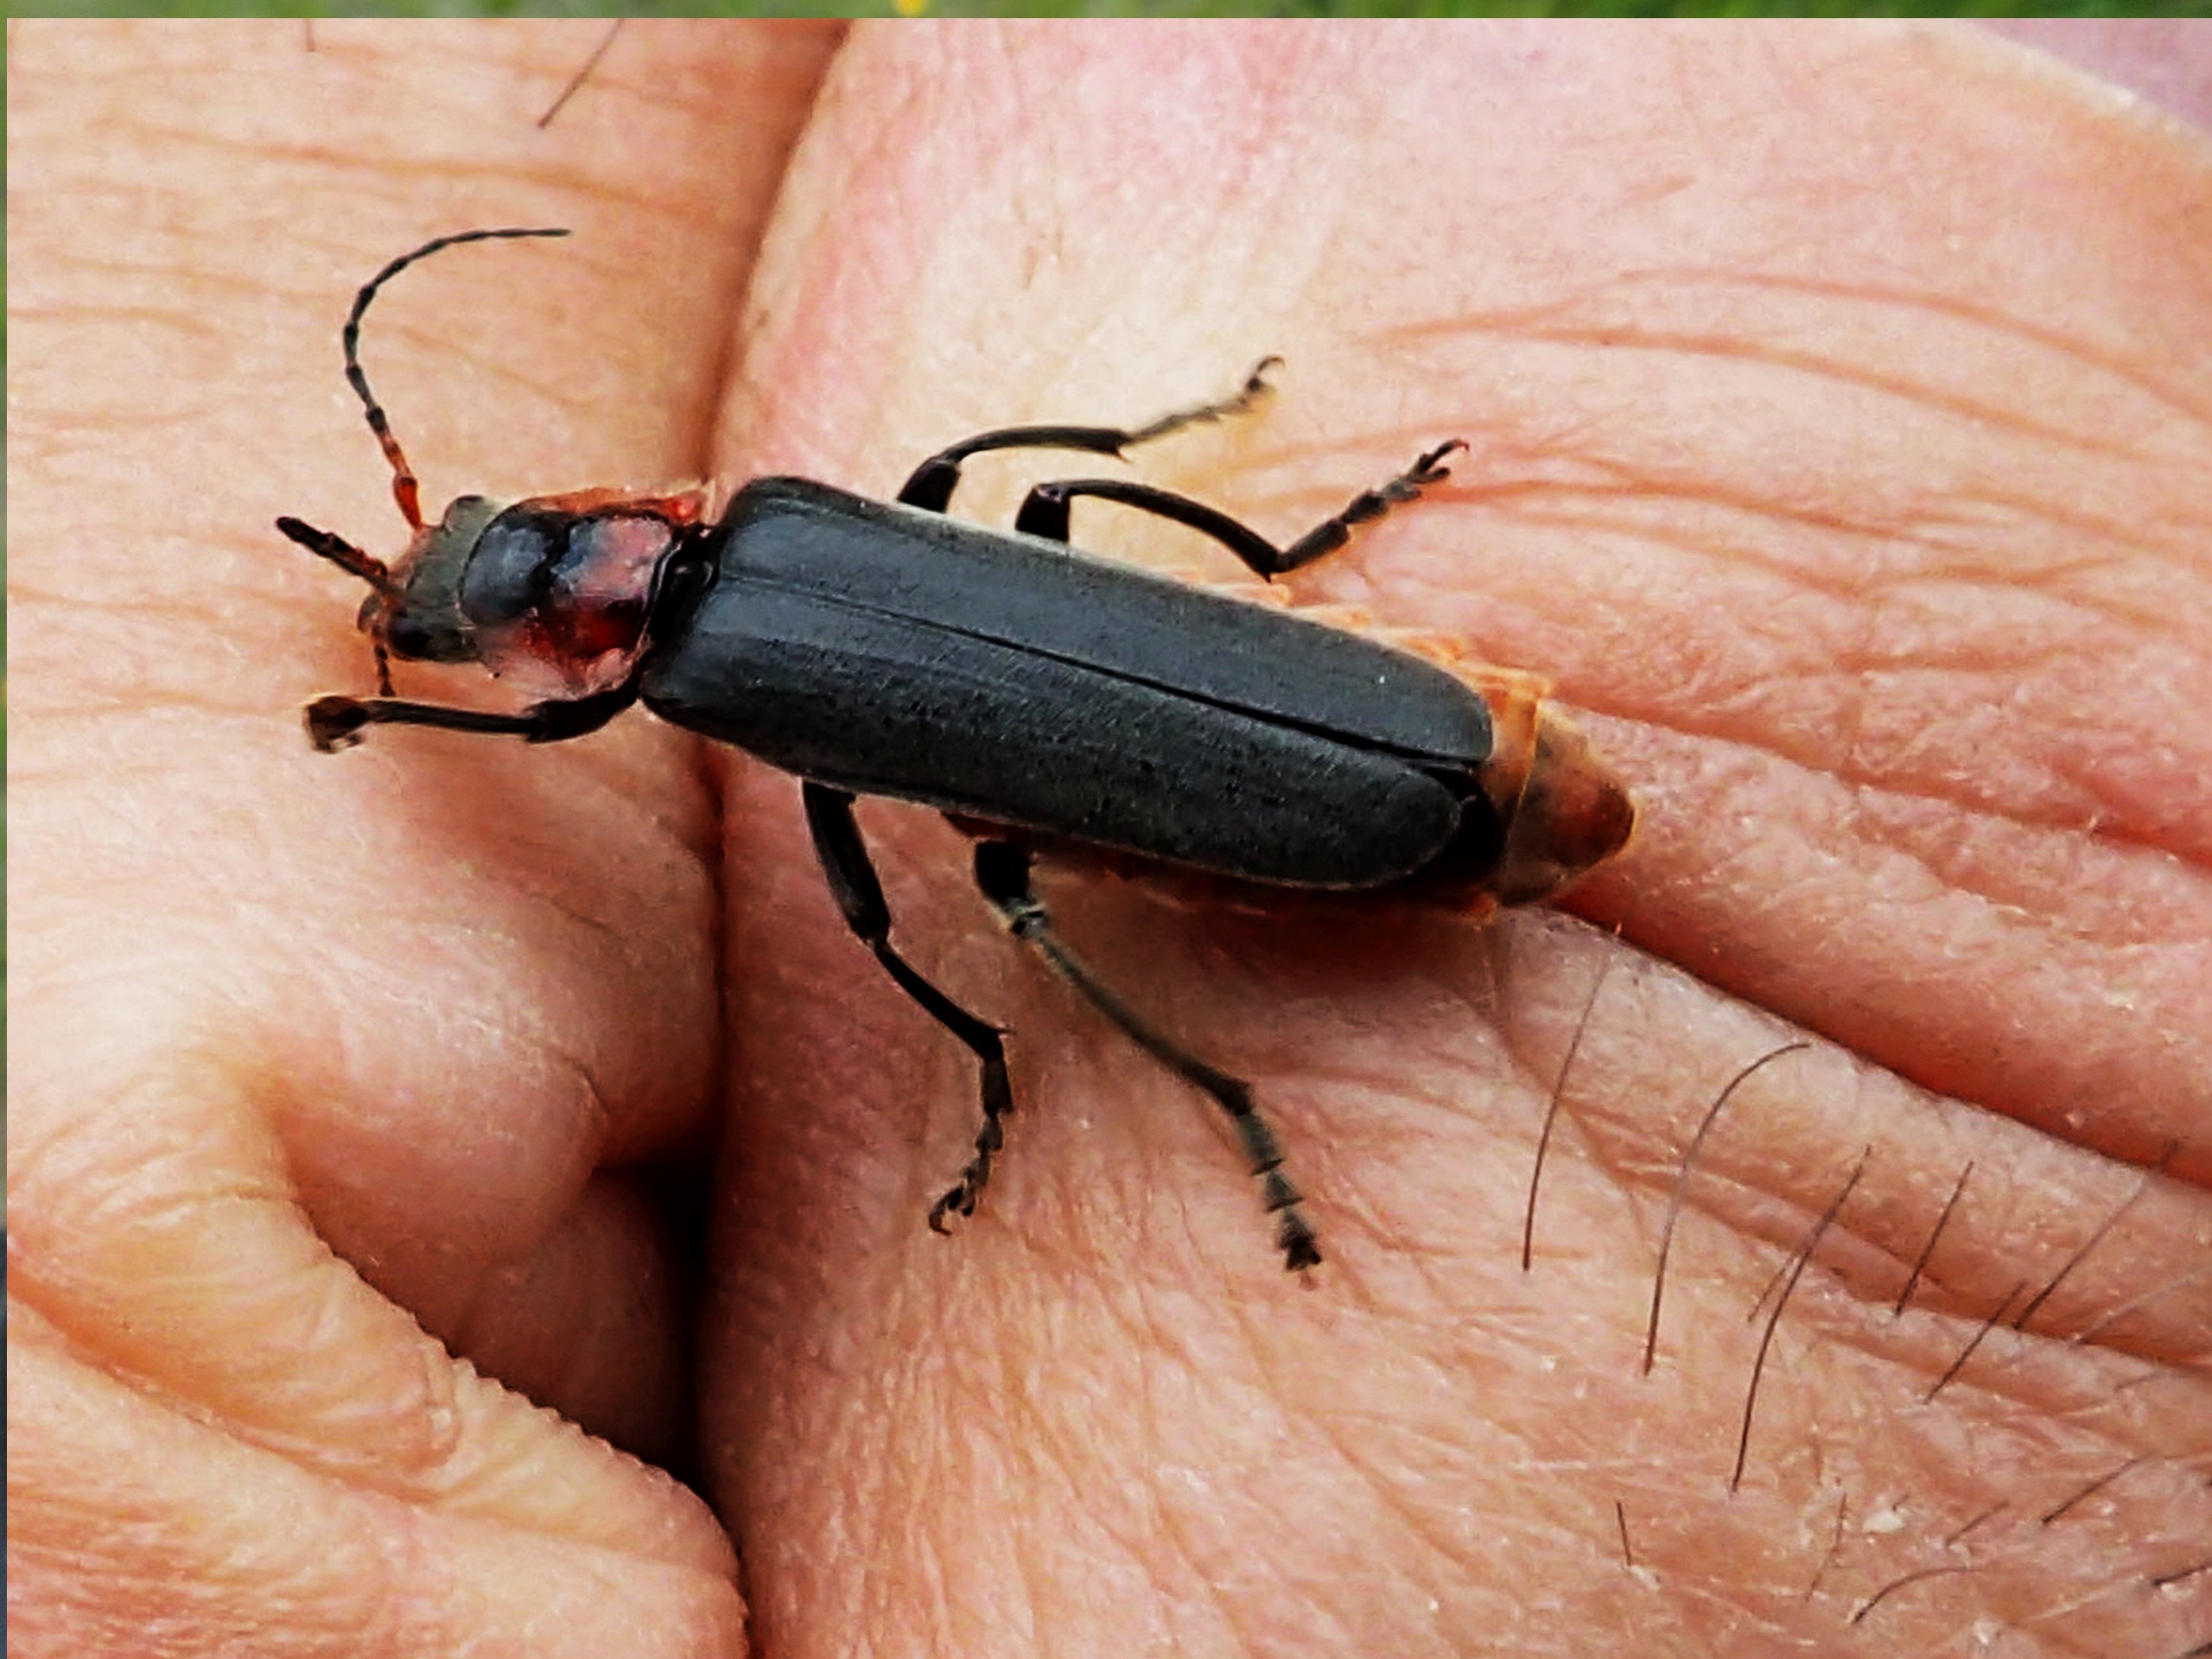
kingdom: Animalia
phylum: Arthropoda
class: Insecta
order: Coleoptera
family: Cantharidae
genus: Cantharis
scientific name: Cantharis fusca
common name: Stor blødvinge
